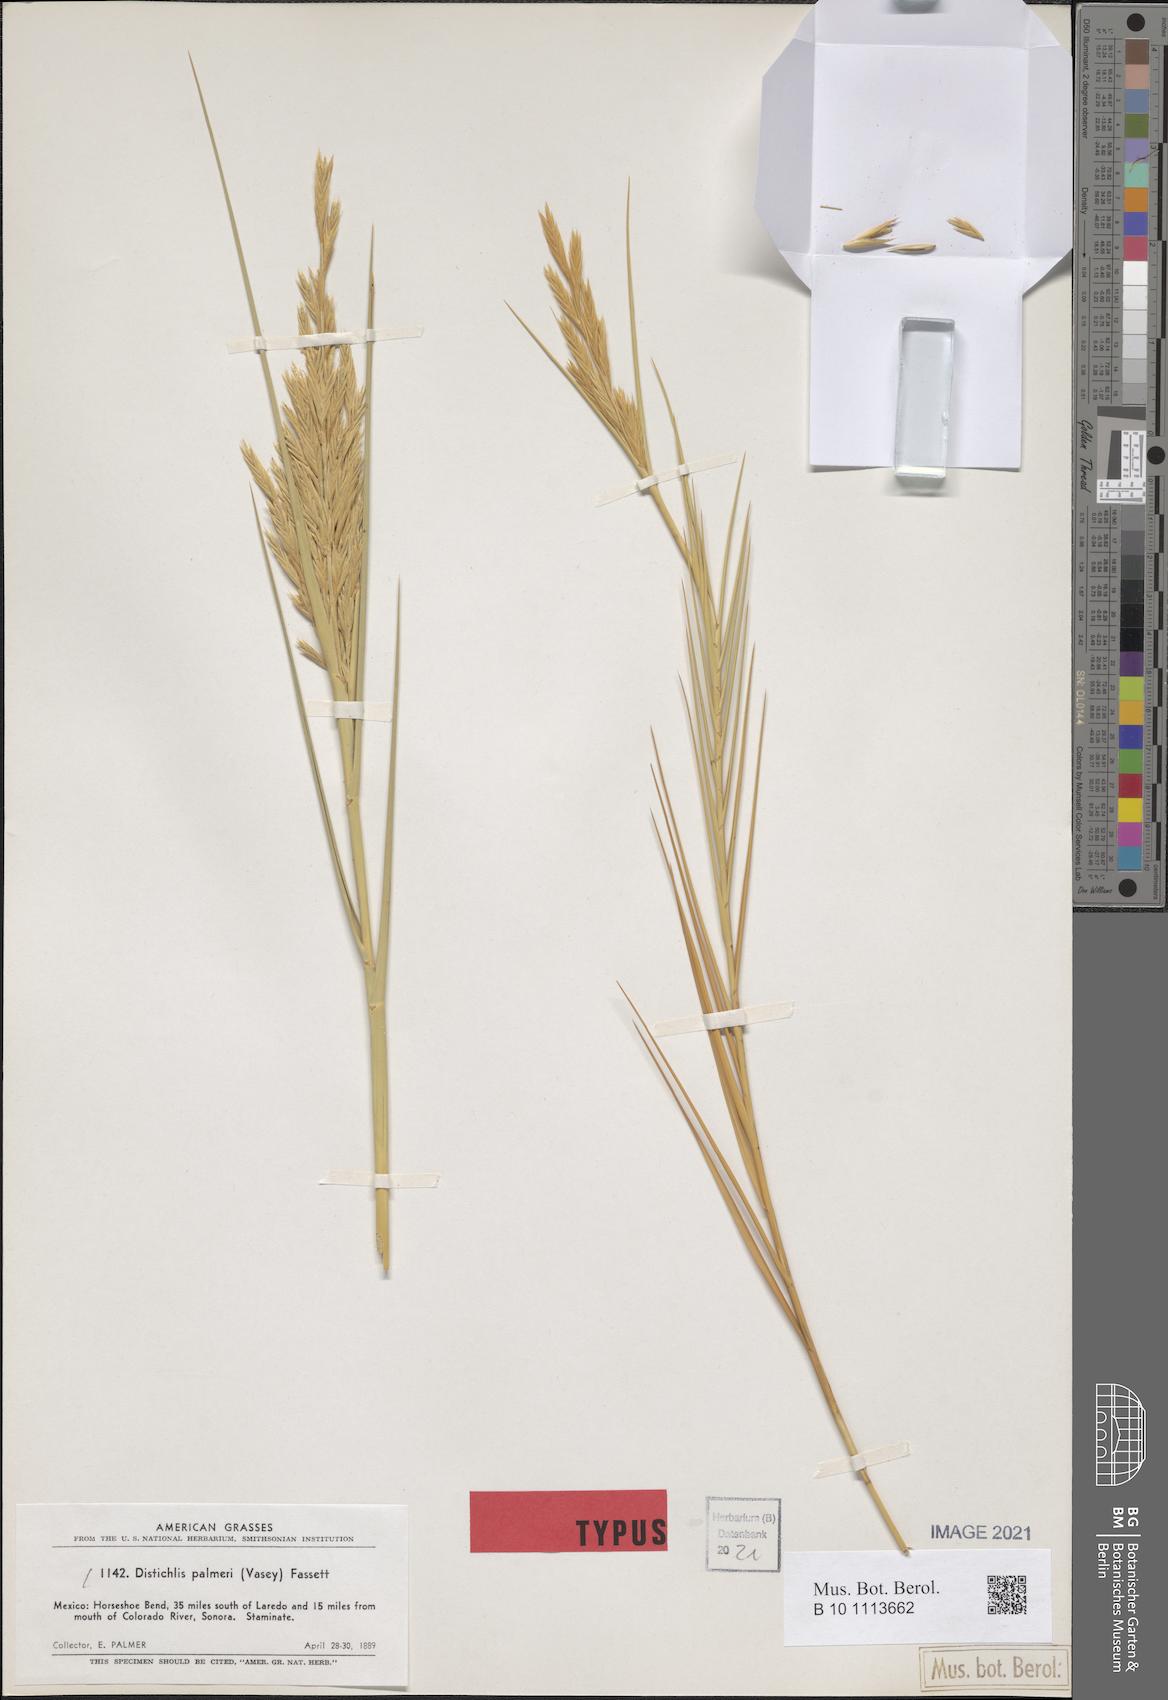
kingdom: Plantae
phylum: Tracheophyta
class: Liliopsida
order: Poales
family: Poaceae
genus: Distichlis
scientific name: Distichlis palmeri
